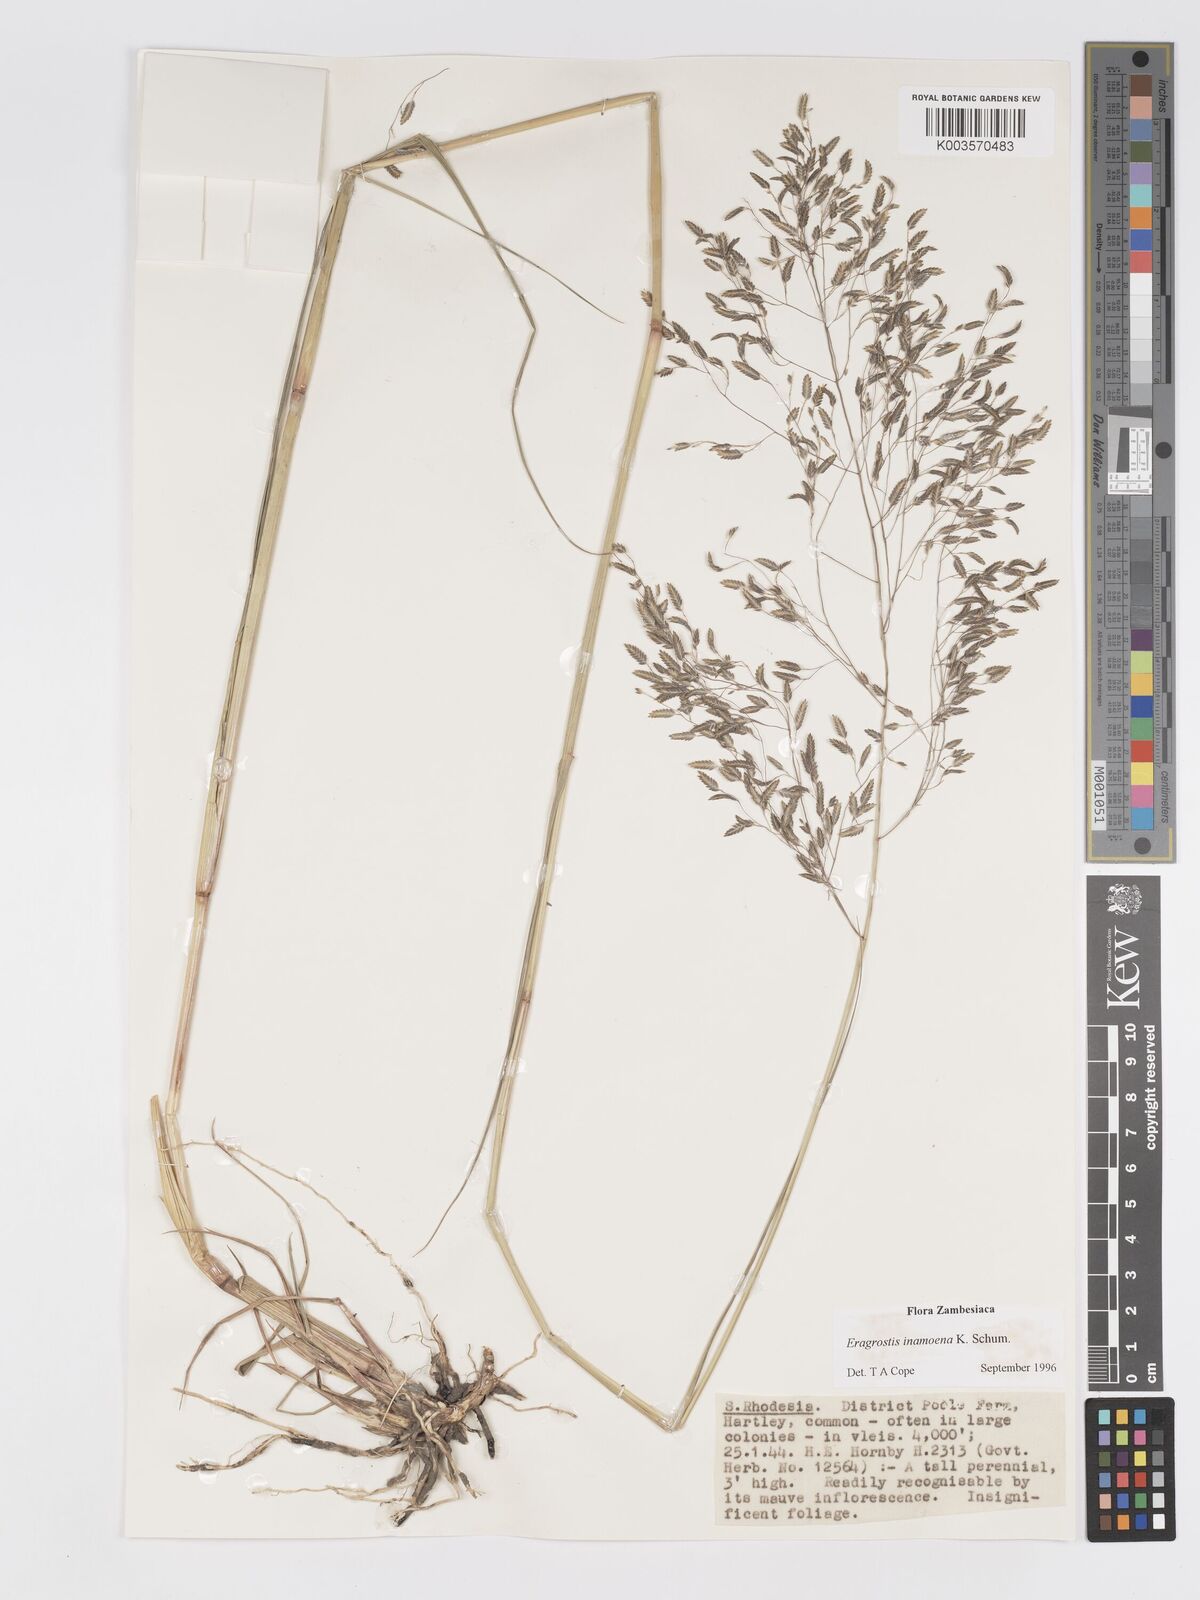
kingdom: Plantae
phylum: Tracheophyta
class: Liliopsida
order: Poales
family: Poaceae
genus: Eragrostis
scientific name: Eragrostis inamoena
